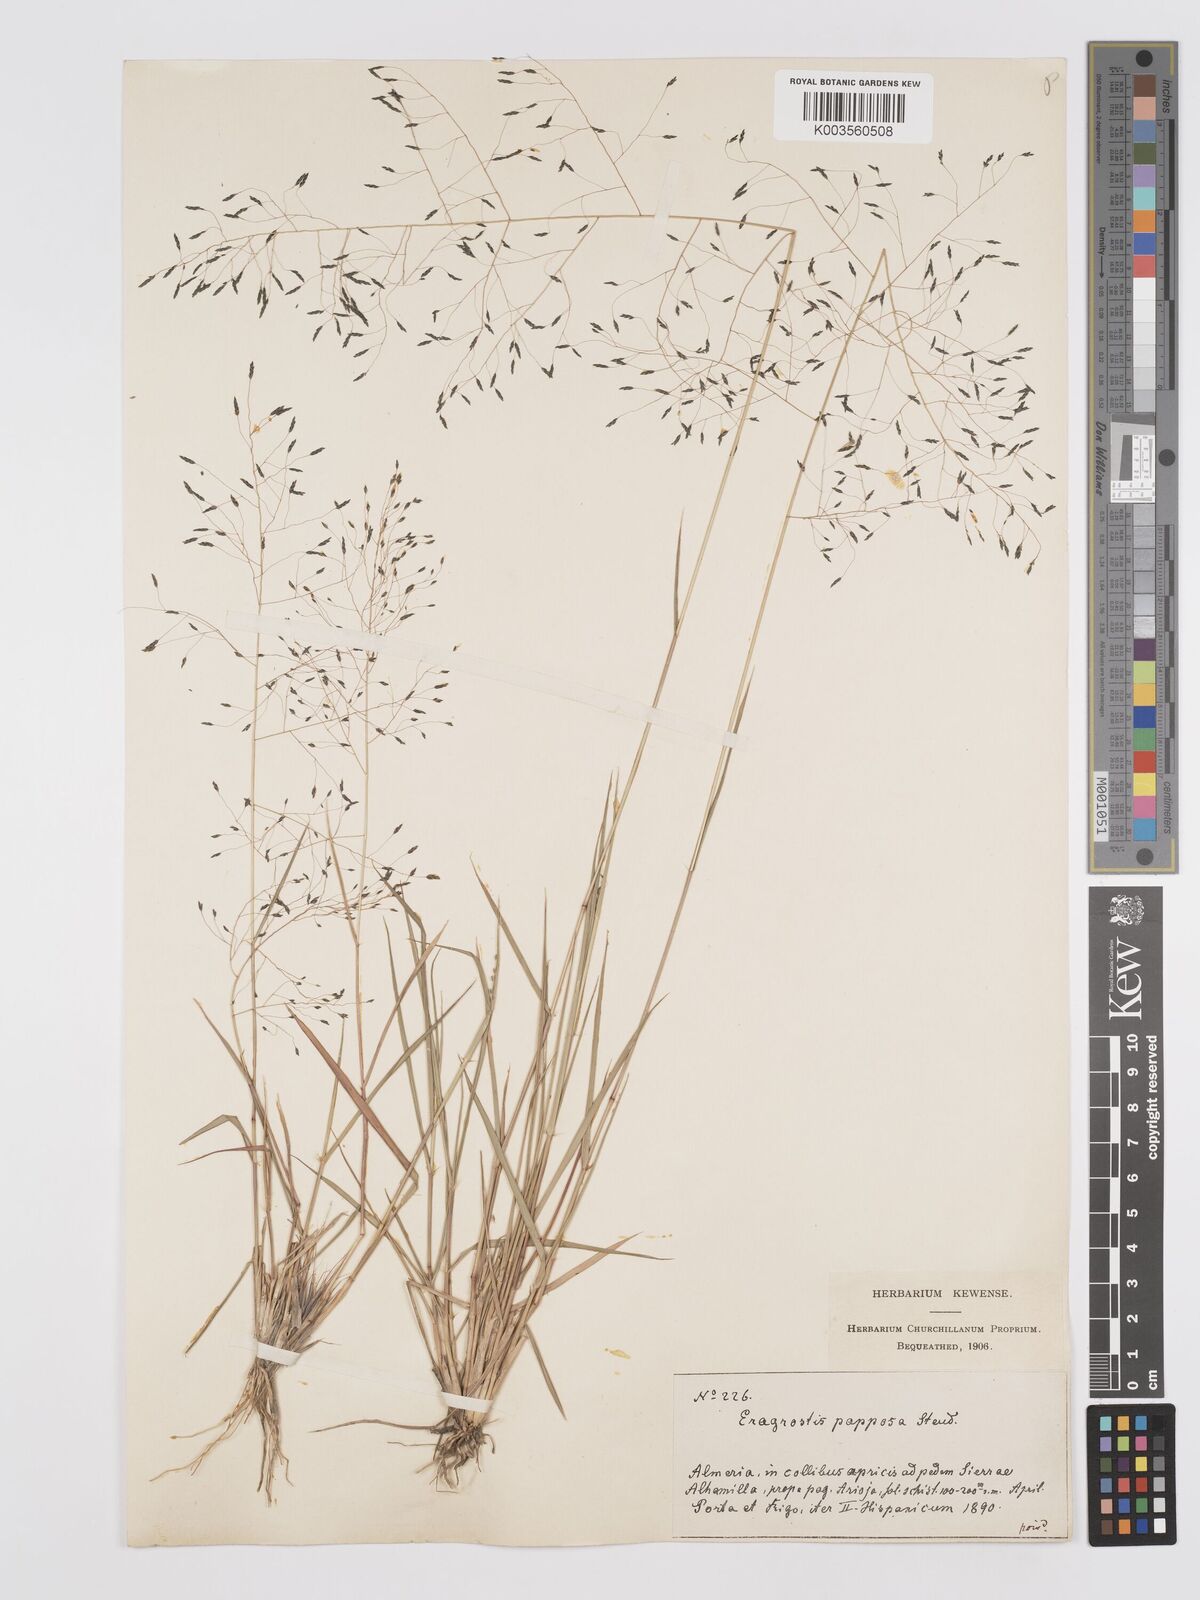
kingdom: Plantae
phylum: Tracheophyta
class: Liliopsida
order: Poales
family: Poaceae
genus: Eragrostis
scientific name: Eragrostis papposa
